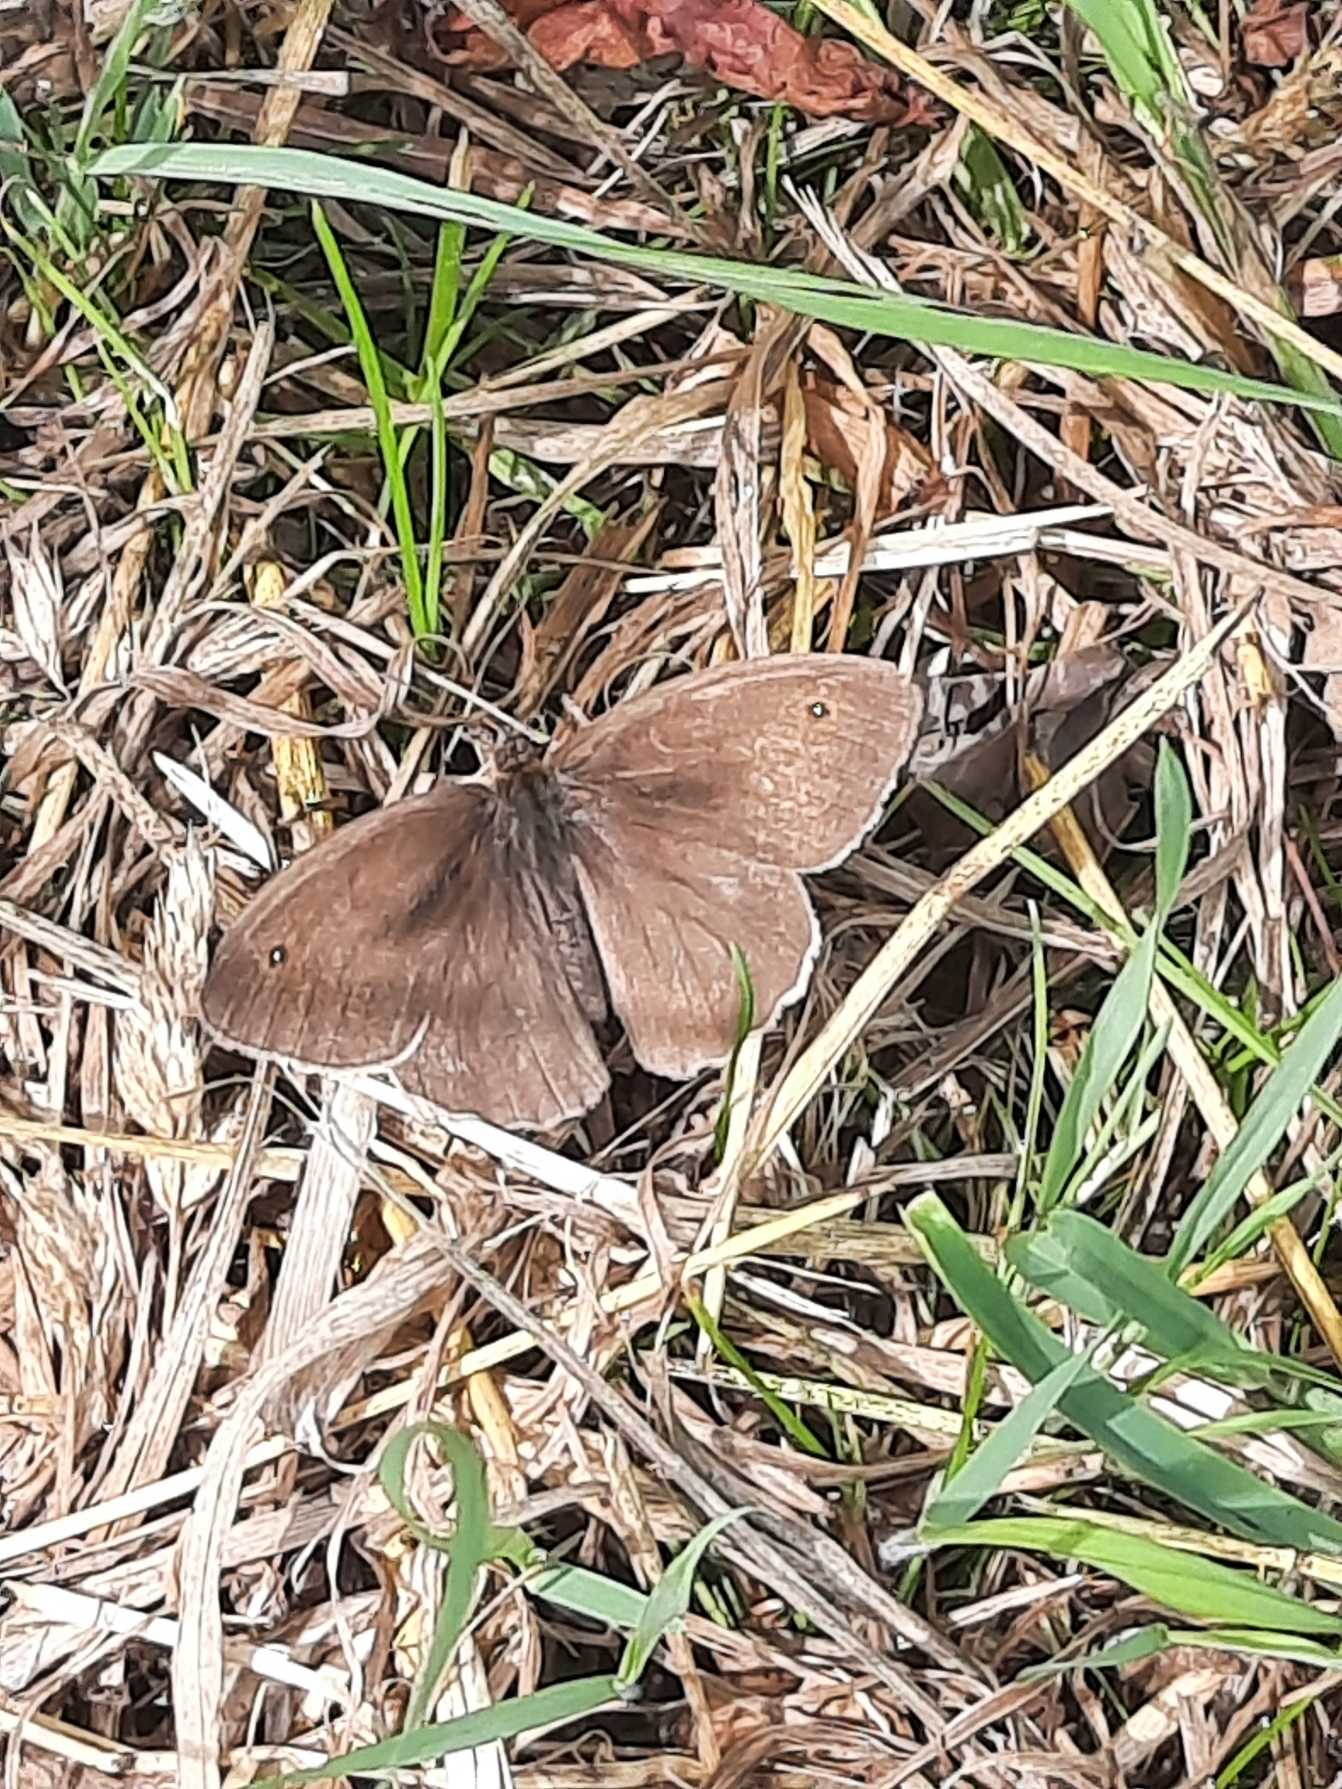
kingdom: Animalia
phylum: Arthropoda
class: Insecta
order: Lepidoptera
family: Nymphalidae
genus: Maniola
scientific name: Maniola jurtina
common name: Græsrandøje
